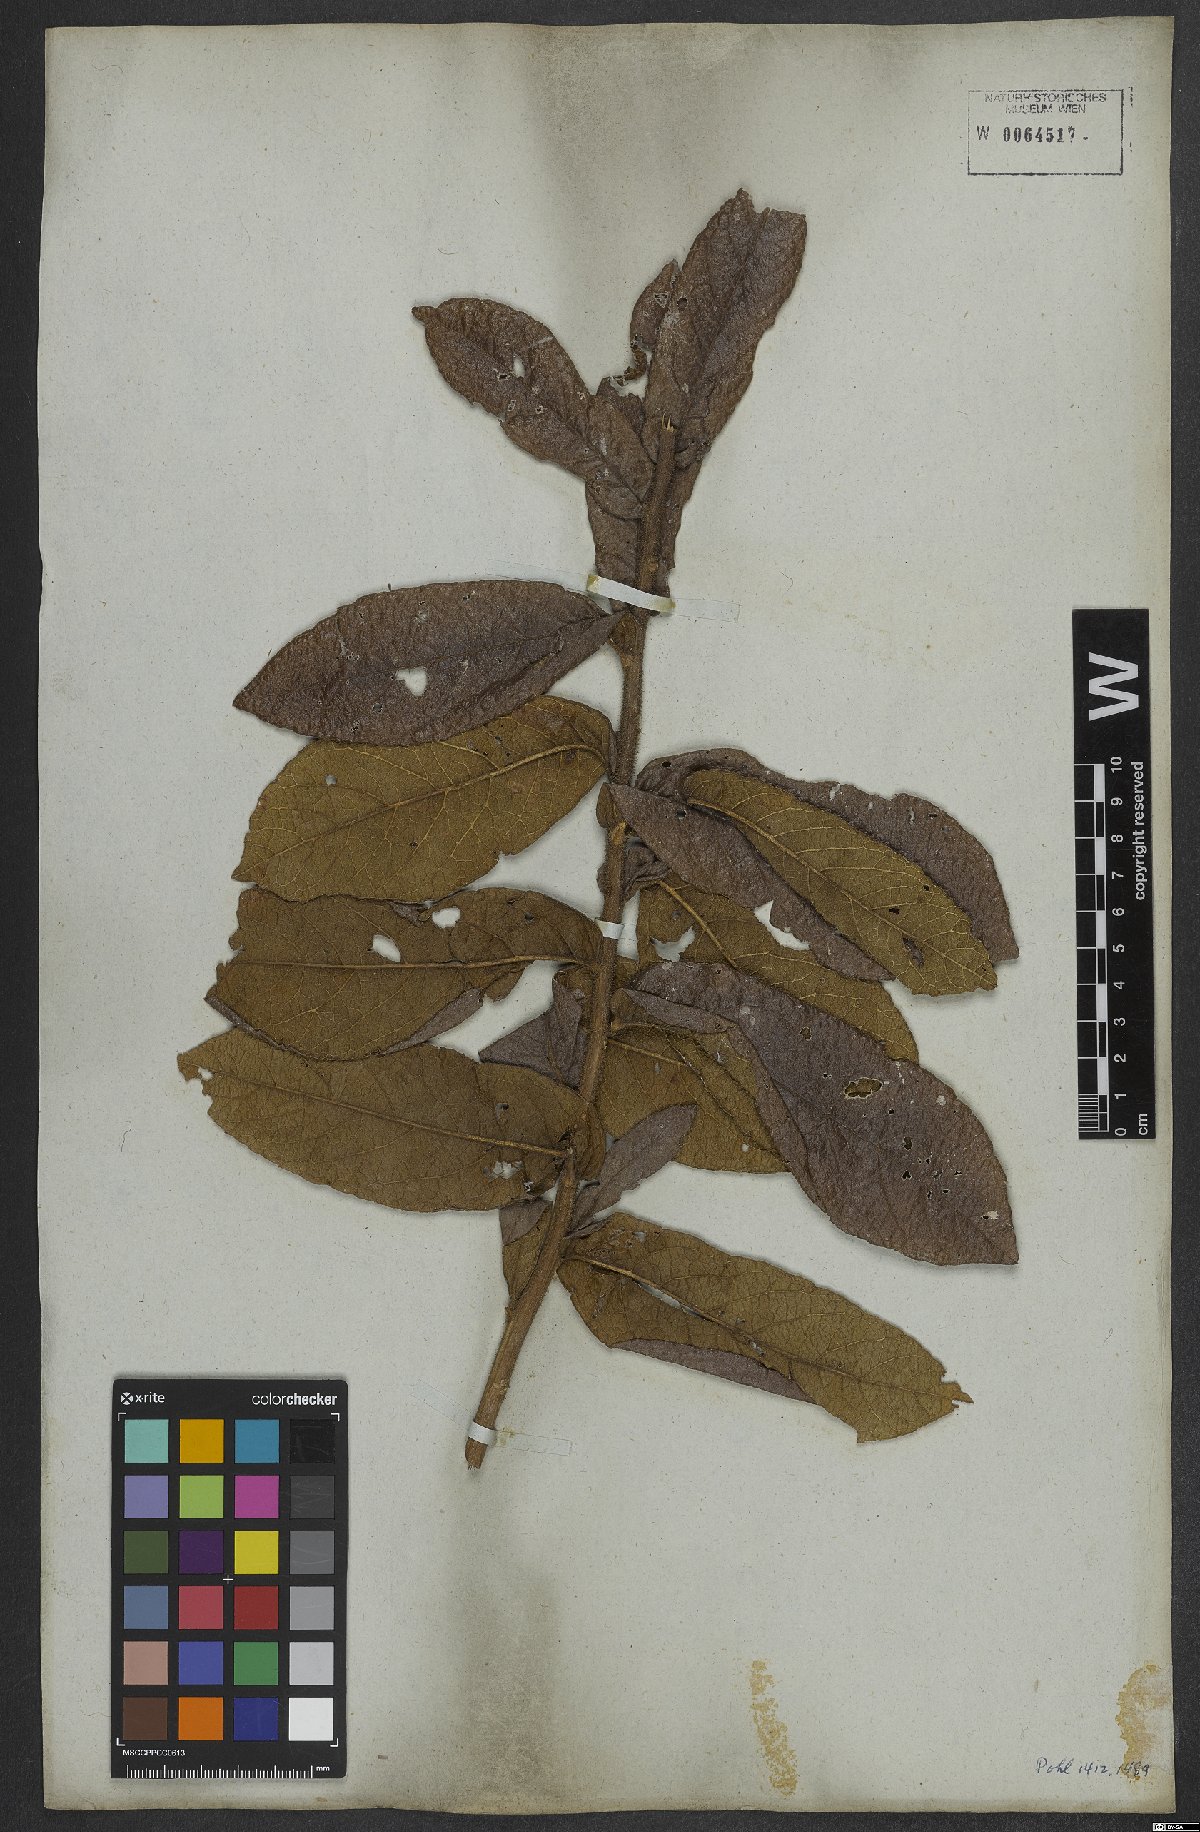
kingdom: Plantae
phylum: Tracheophyta
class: Magnoliopsida
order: Asterales
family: Asteraceae
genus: Lessingianthus
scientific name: Lessingianthus bardanioides
